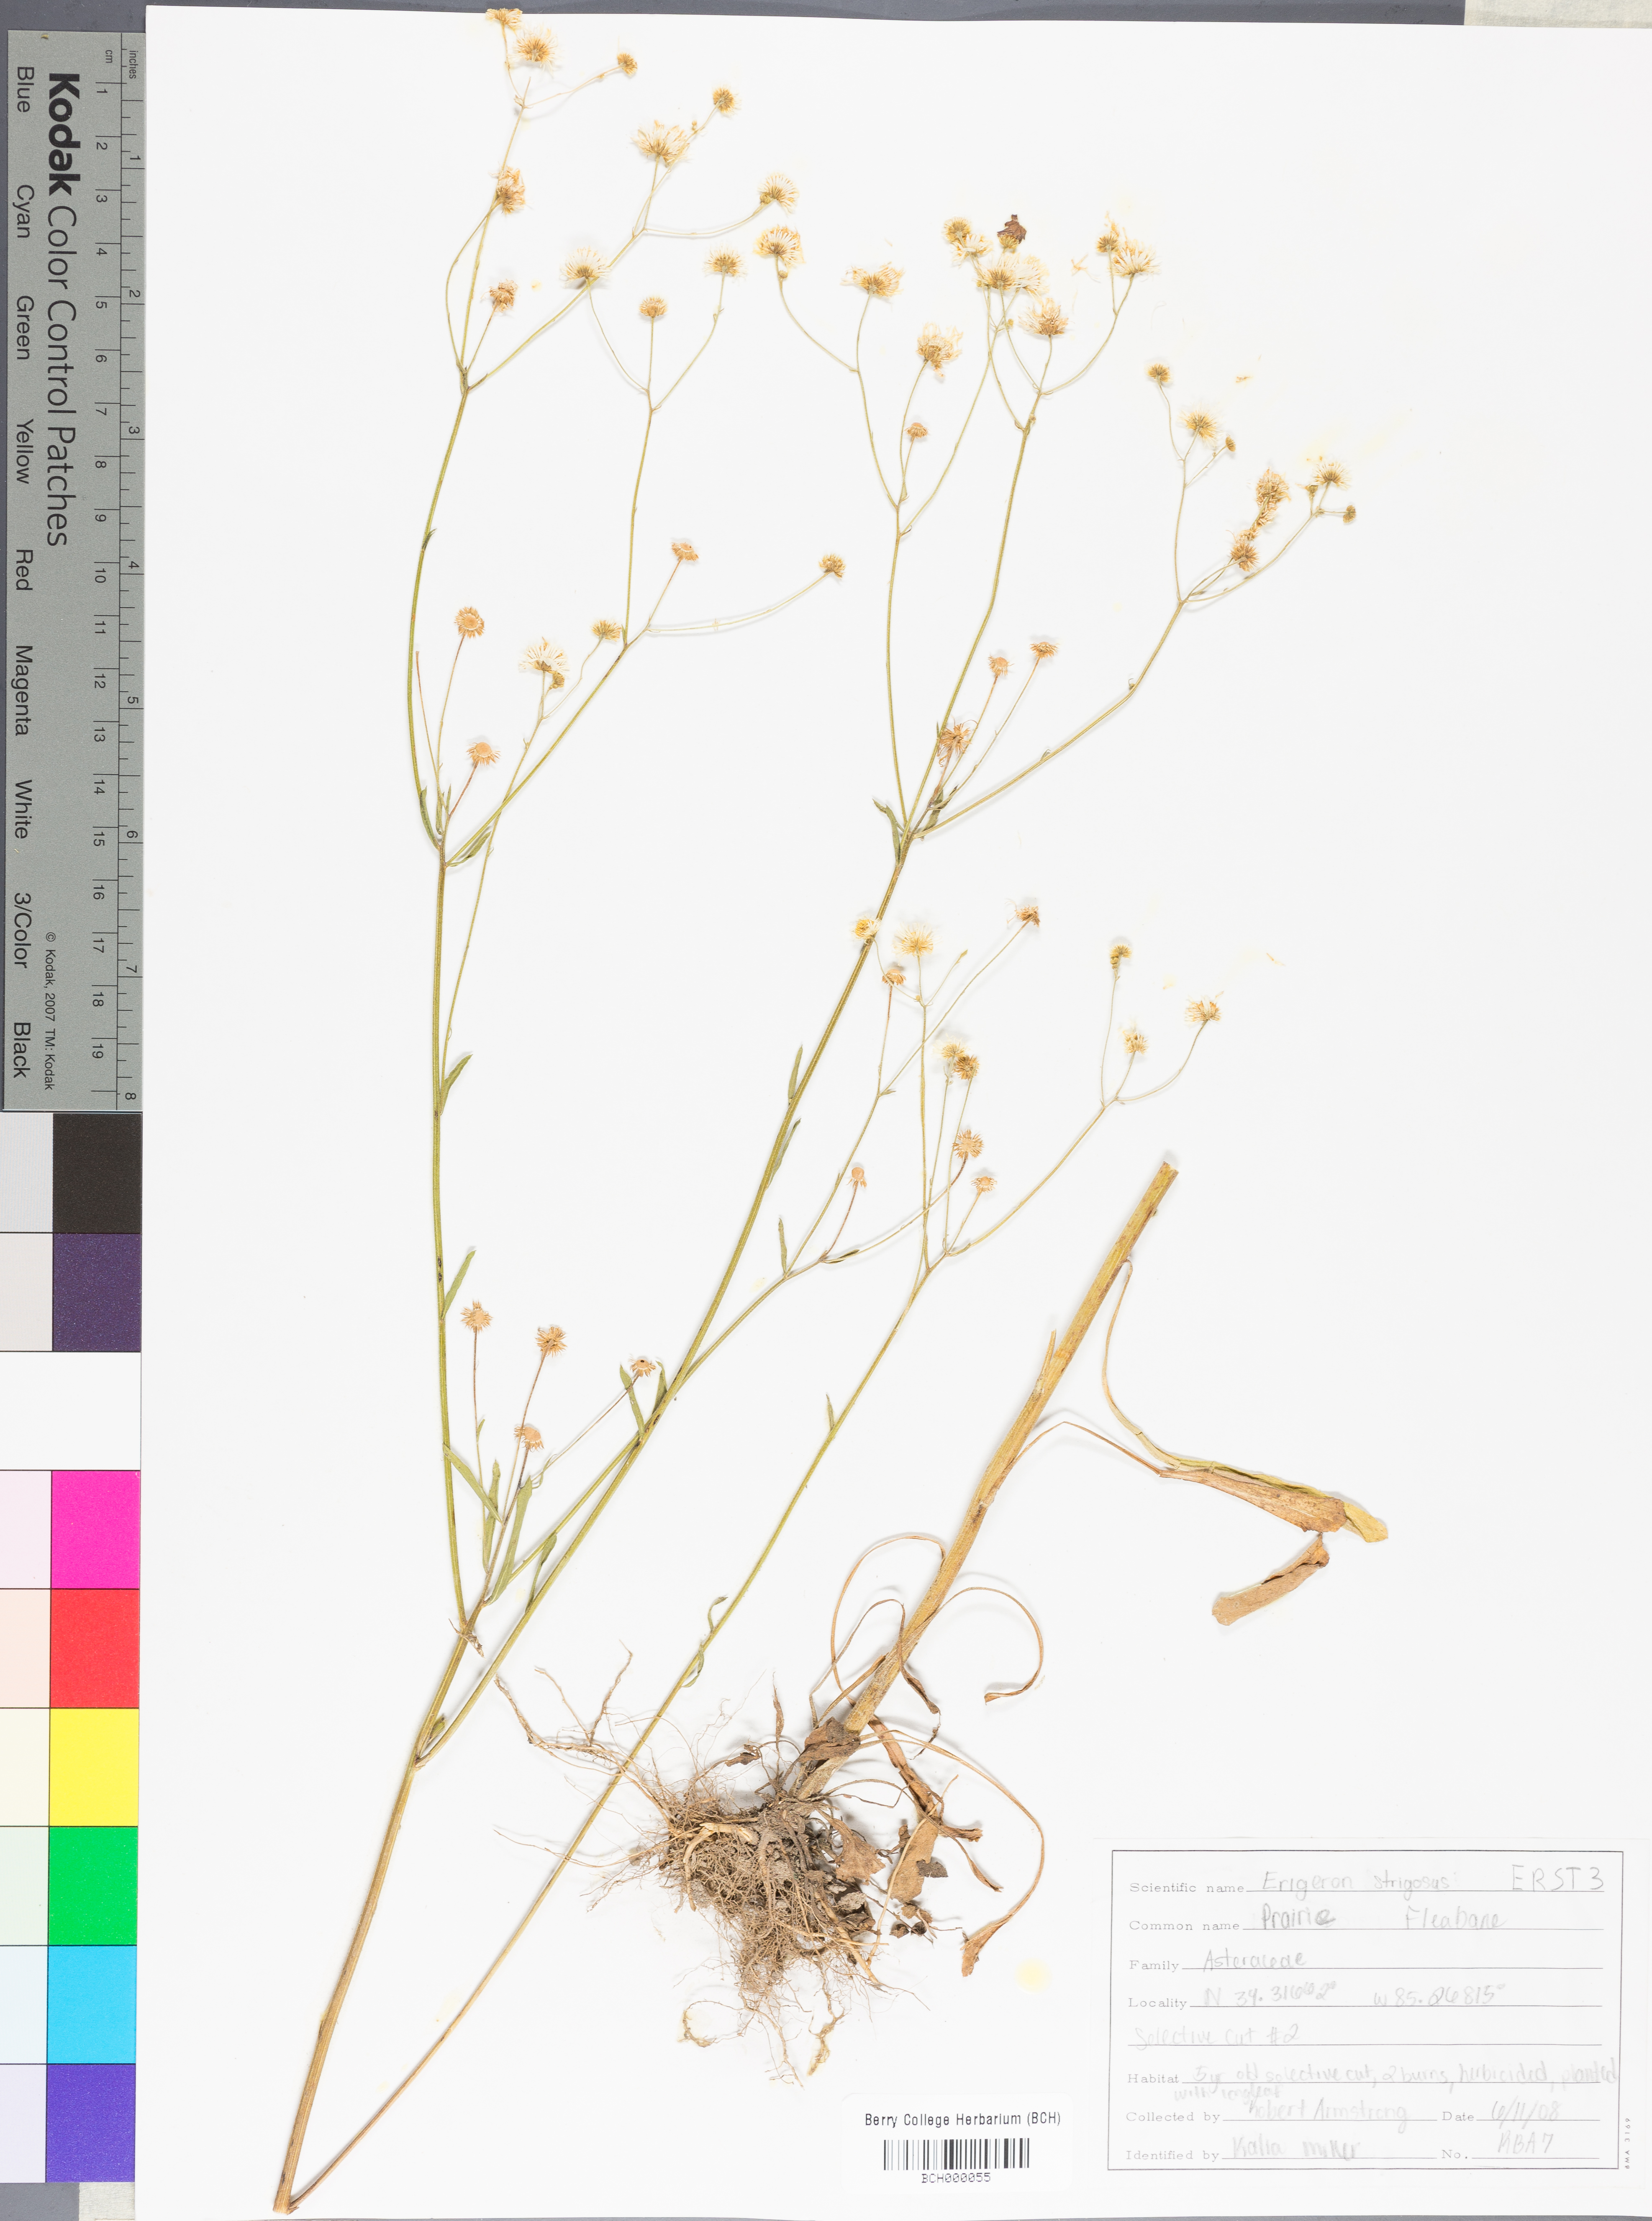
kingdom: Plantae
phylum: Tracheophyta
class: Magnoliopsida
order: Asterales
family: Asteraceae
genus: Erigeron
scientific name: Erigeron strigosus
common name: Common eastern fleabane
